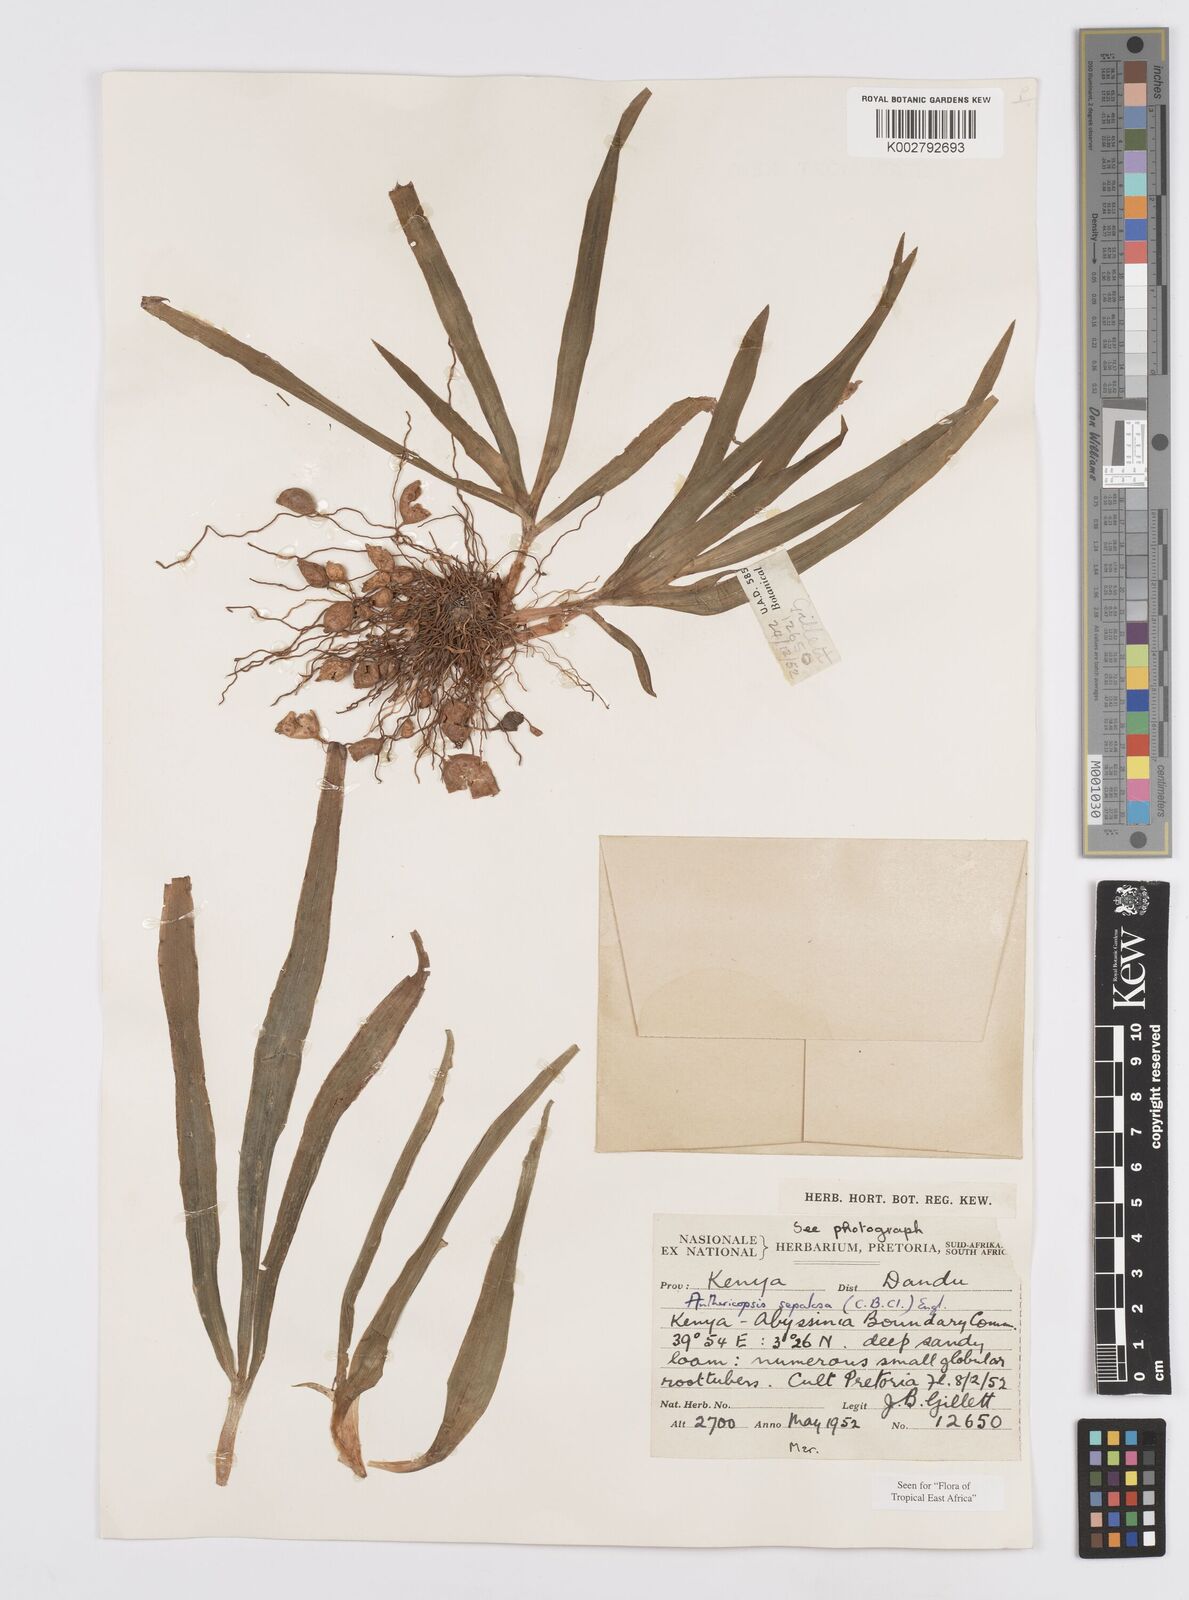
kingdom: Plantae
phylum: Tracheophyta
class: Liliopsida
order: Commelinales
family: Commelinaceae
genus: Anthericopsis
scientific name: Anthericopsis sepalosa
